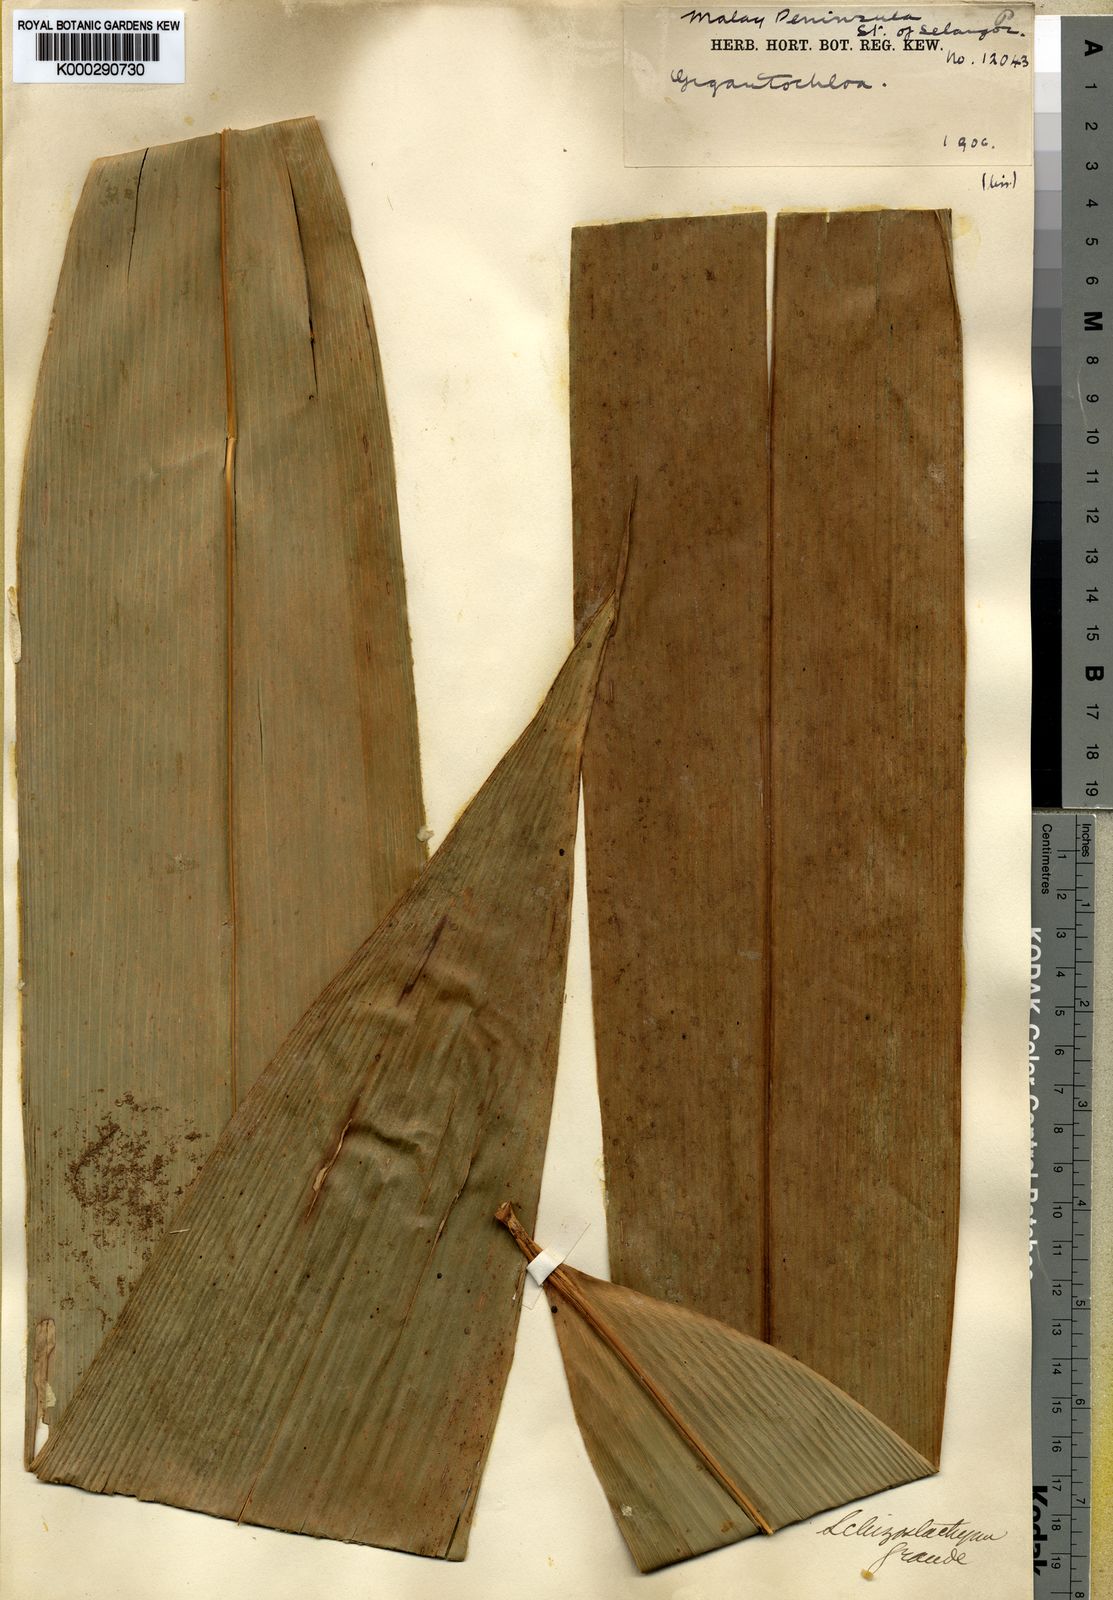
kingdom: Plantae
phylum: Tracheophyta
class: Liliopsida
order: Poales
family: Poaceae
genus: Schizostachyum
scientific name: Schizostachyum grande
